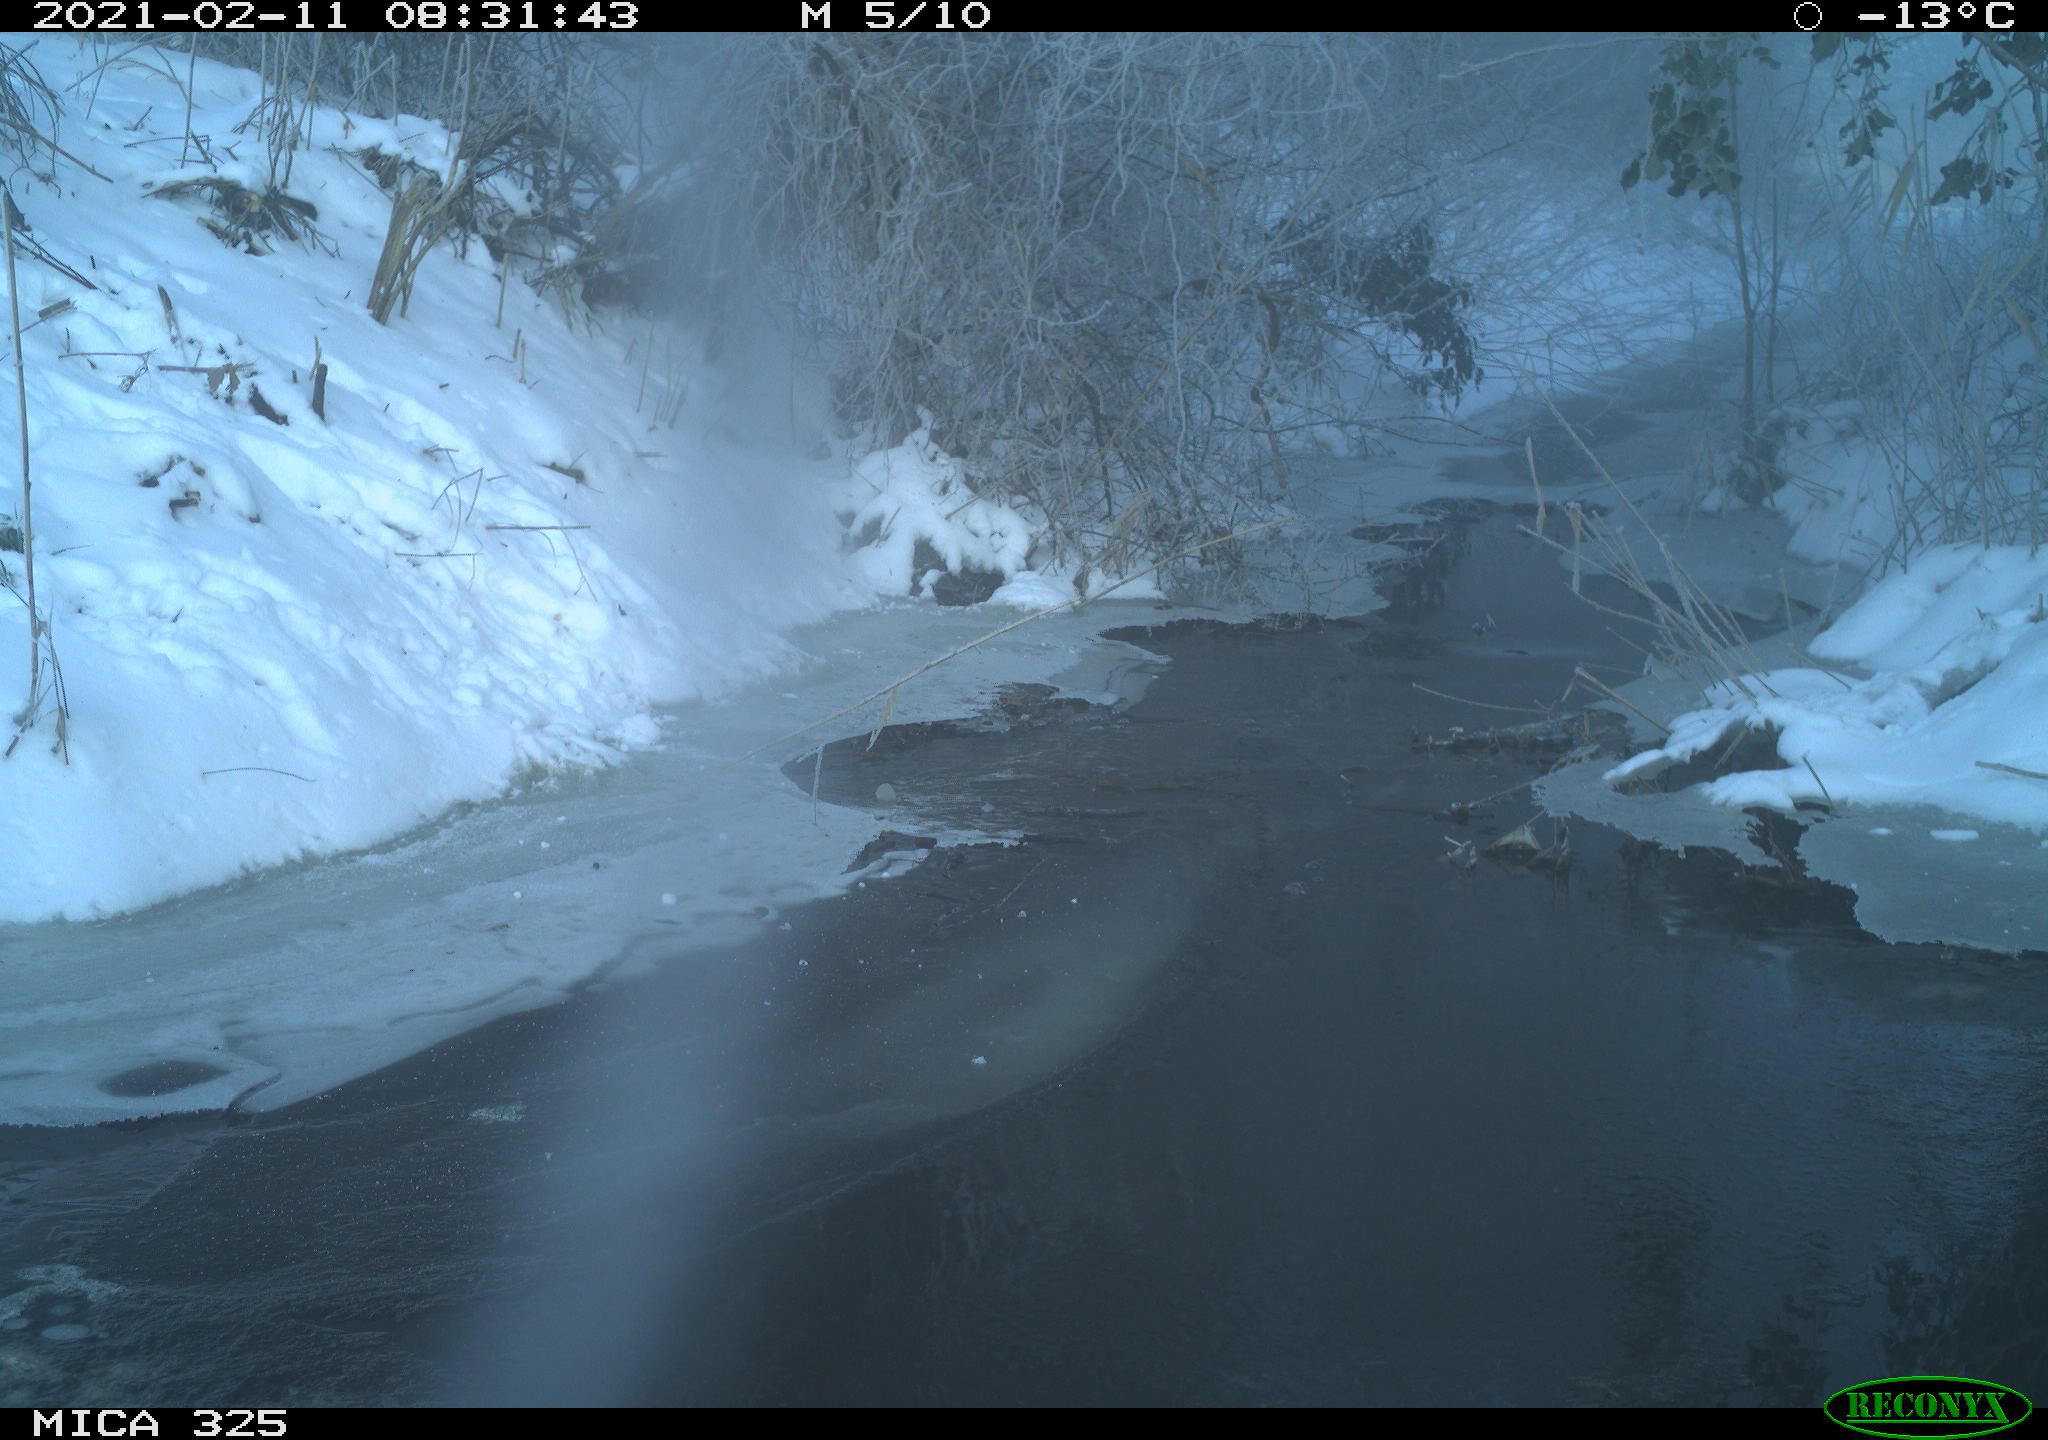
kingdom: Animalia
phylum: Chordata
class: Mammalia
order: Lagomorpha
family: Leporidae
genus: Lepus
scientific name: Lepus europaeus
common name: European hare
